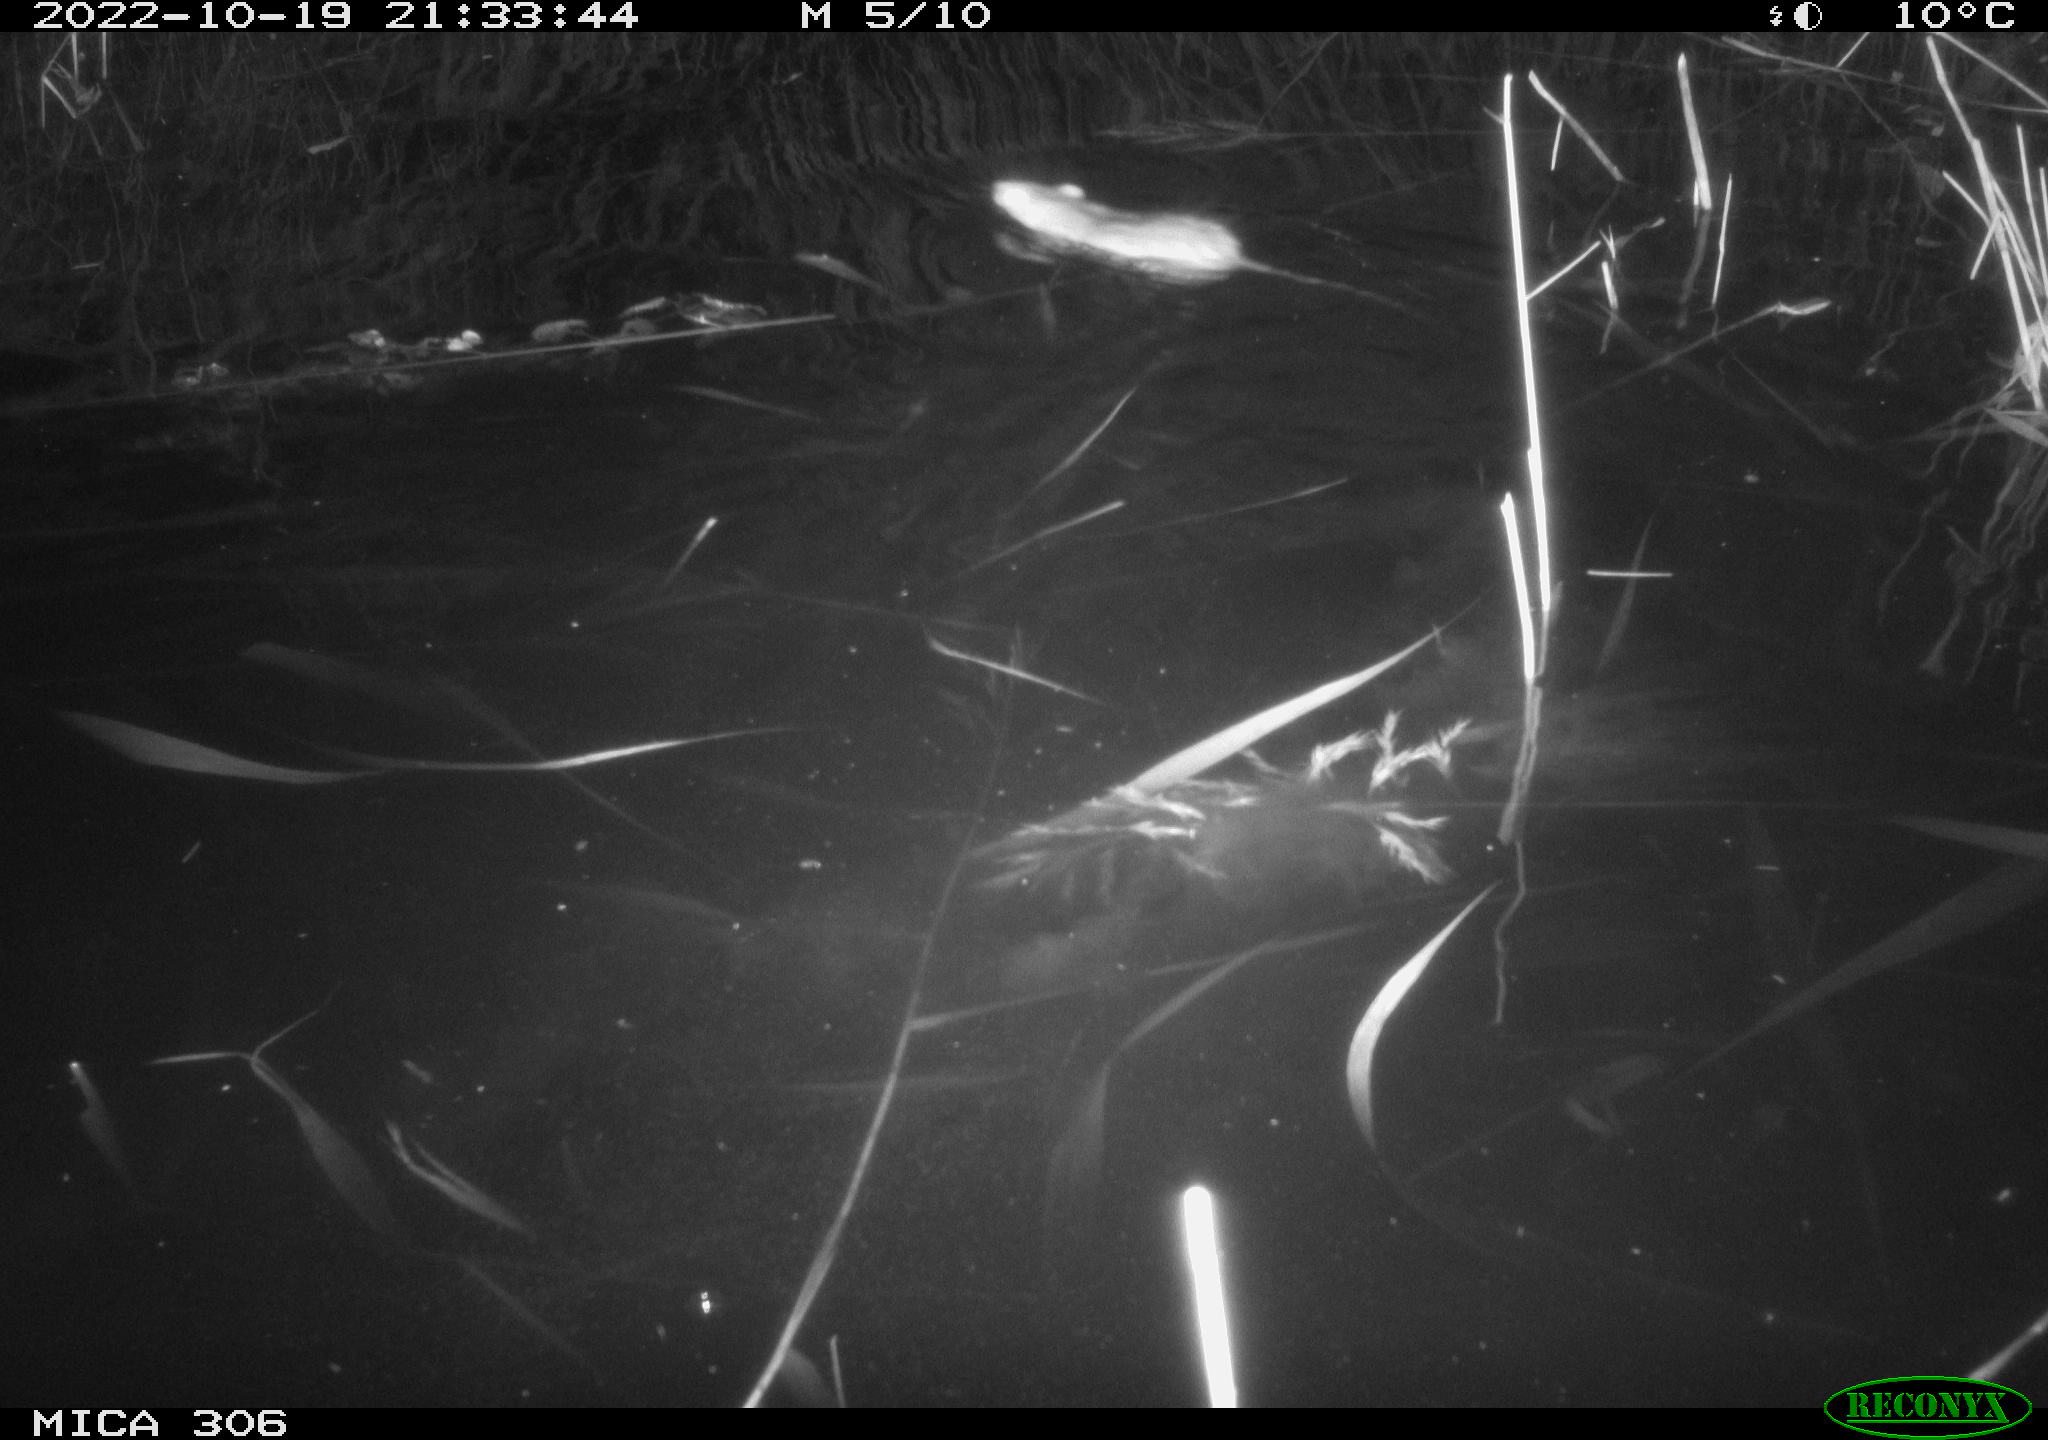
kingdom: Animalia
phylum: Chordata
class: Mammalia
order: Rodentia
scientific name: Rodentia
